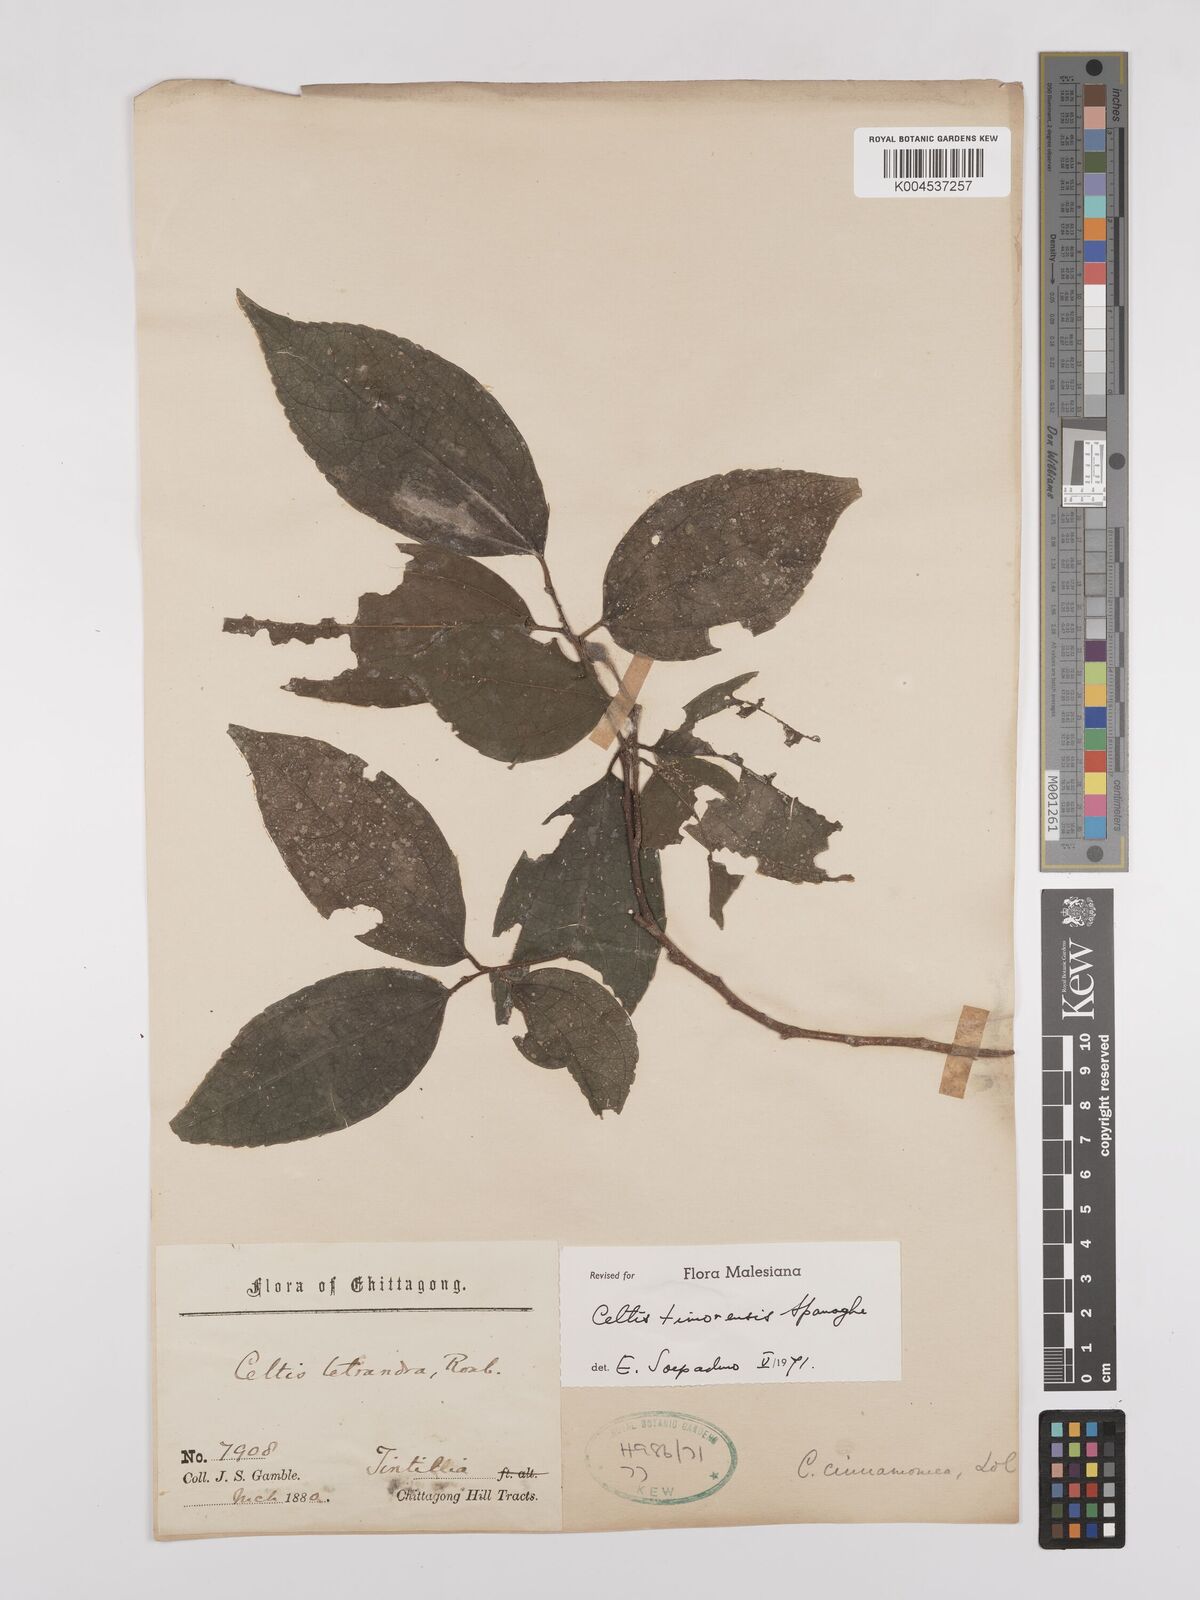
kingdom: Plantae
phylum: Tracheophyta
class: Magnoliopsida
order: Rosales
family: Cannabaceae
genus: Celtis
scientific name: Celtis
